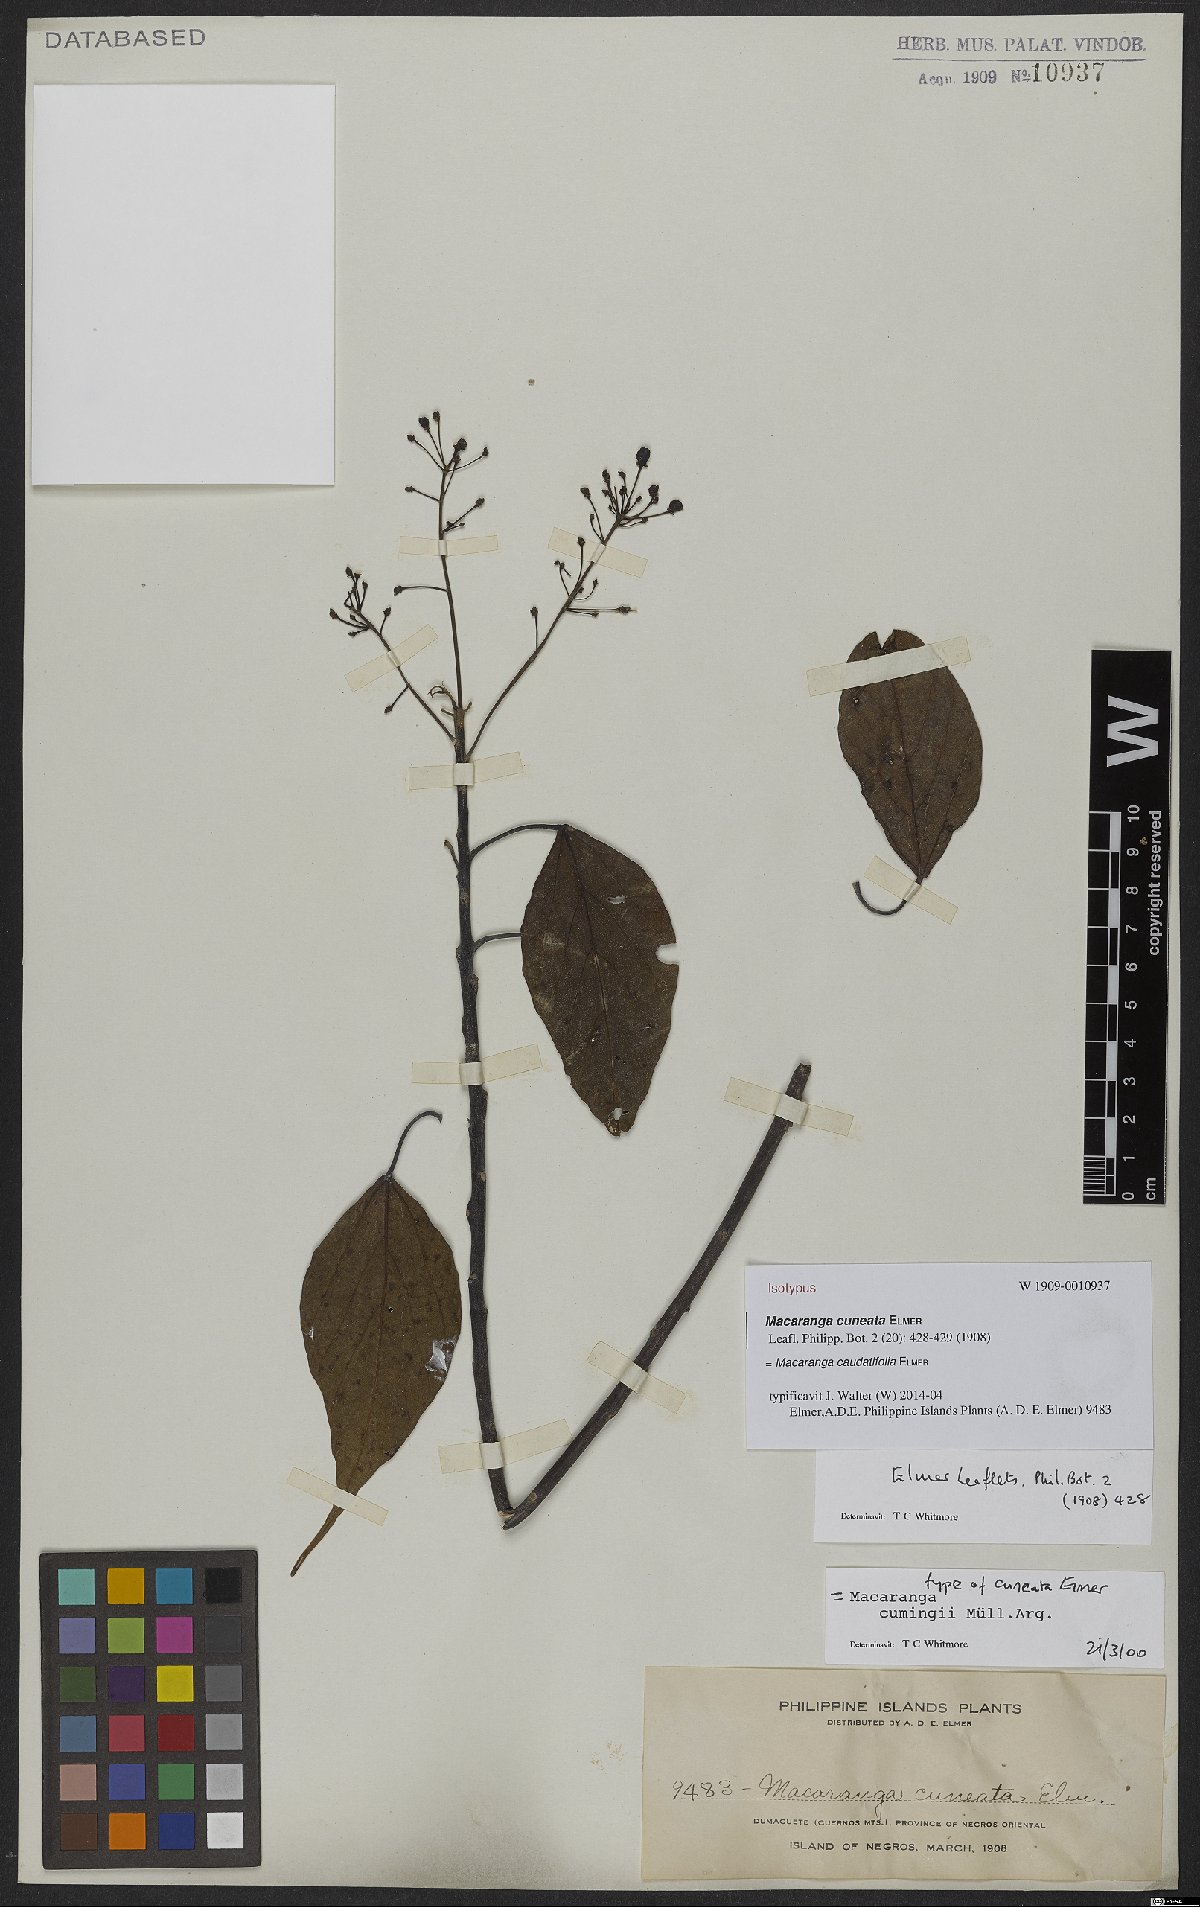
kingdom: Plantae
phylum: Tracheophyta
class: Magnoliopsida
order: Malpighiales
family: Euphorbiaceae
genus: Macaranga
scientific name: Macaranga caudatifolia
